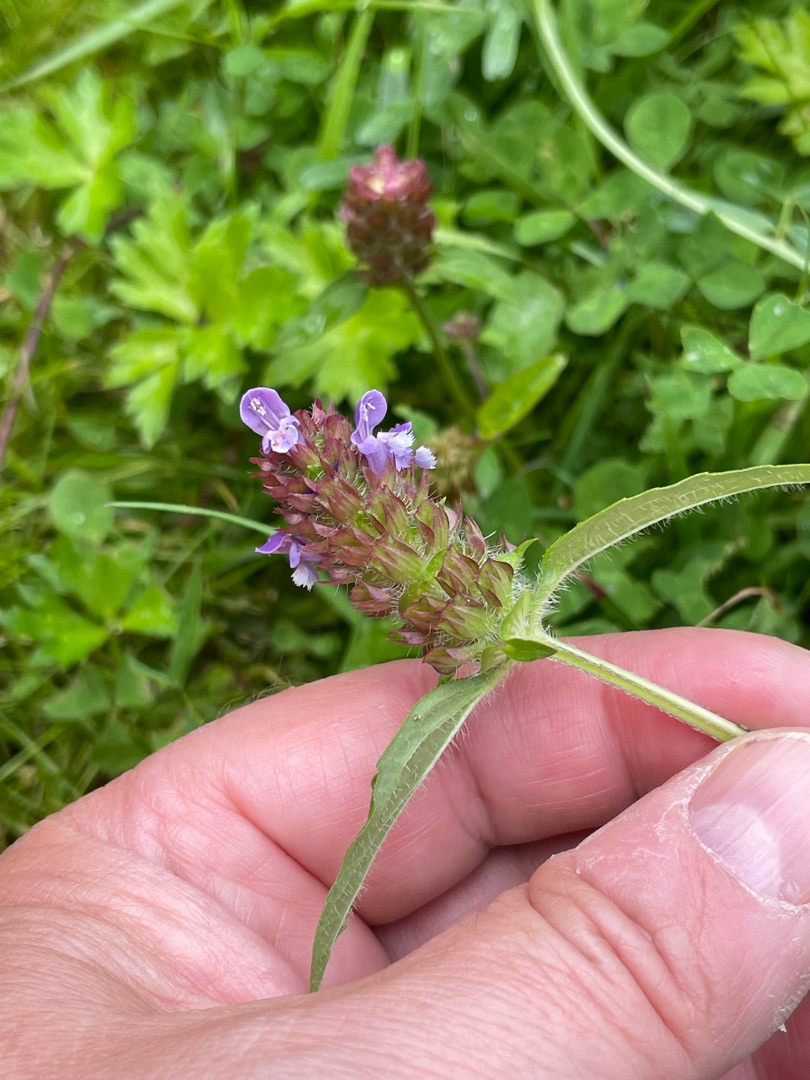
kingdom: Plantae
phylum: Tracheophyta
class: Magnoliopsida
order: Lamiales
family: Lamiaceae
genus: Prunella
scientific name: Prunella vulgaris
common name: Almindelig brunelle
